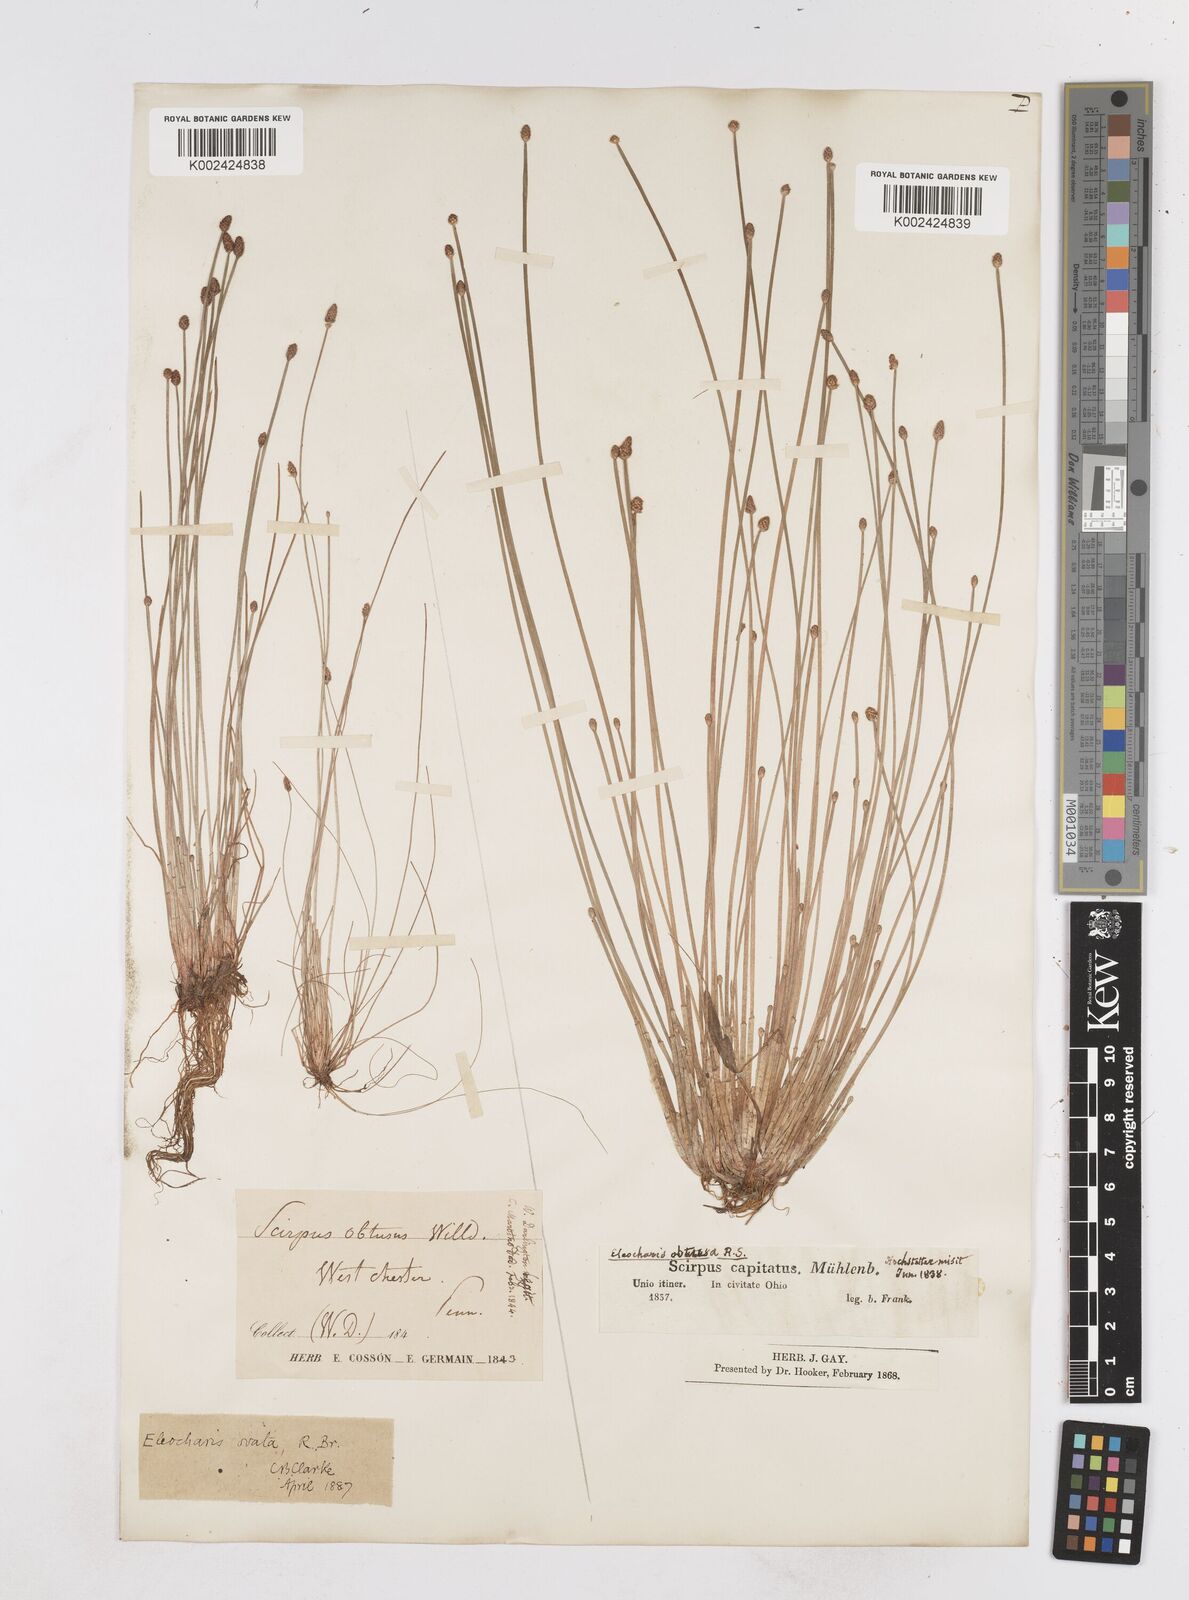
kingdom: Plantae
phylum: Tracheophyta
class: Liliopsida
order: Poales
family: Cyperaceae
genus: Eleocharis
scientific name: Eleocharis obtusa
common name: Blunt spikerush
